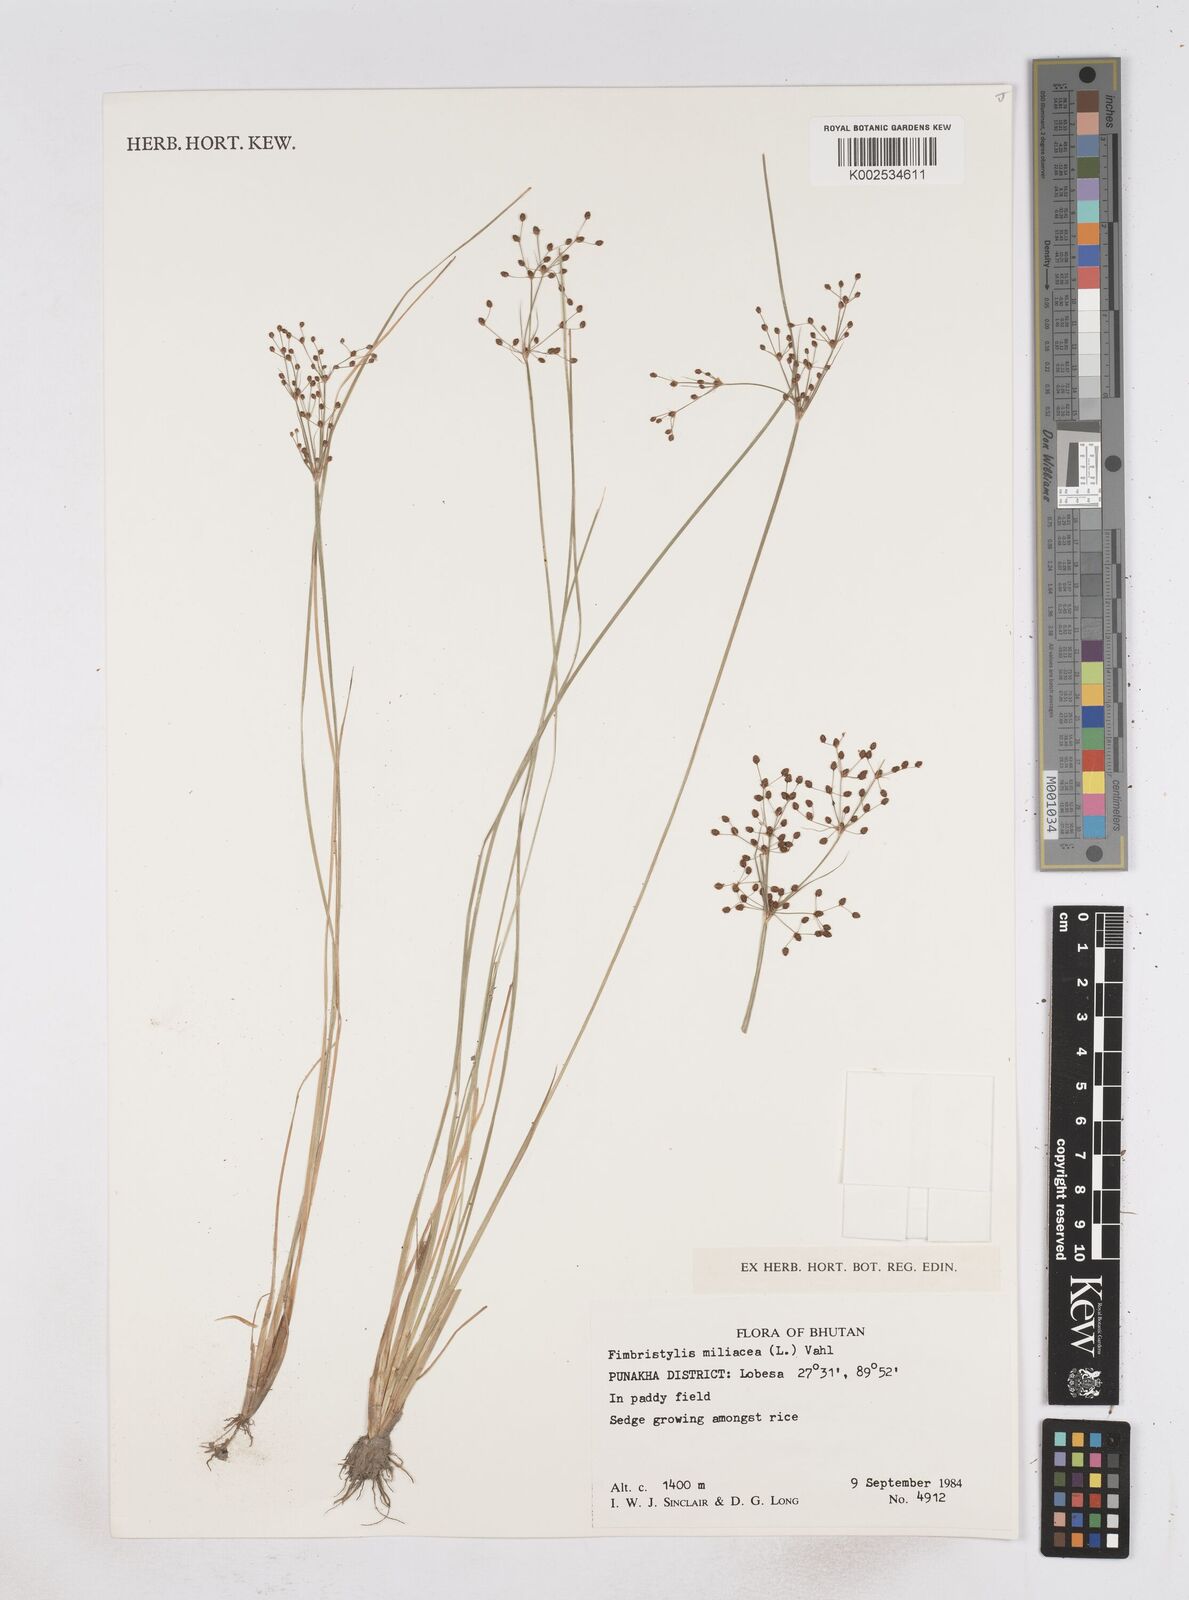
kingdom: Plantae
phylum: Tracheophyta
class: Liliopsida
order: Poales
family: Cyperaceae
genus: Fimbristylis
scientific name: Fimbristylis littoralis
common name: Fimbry
